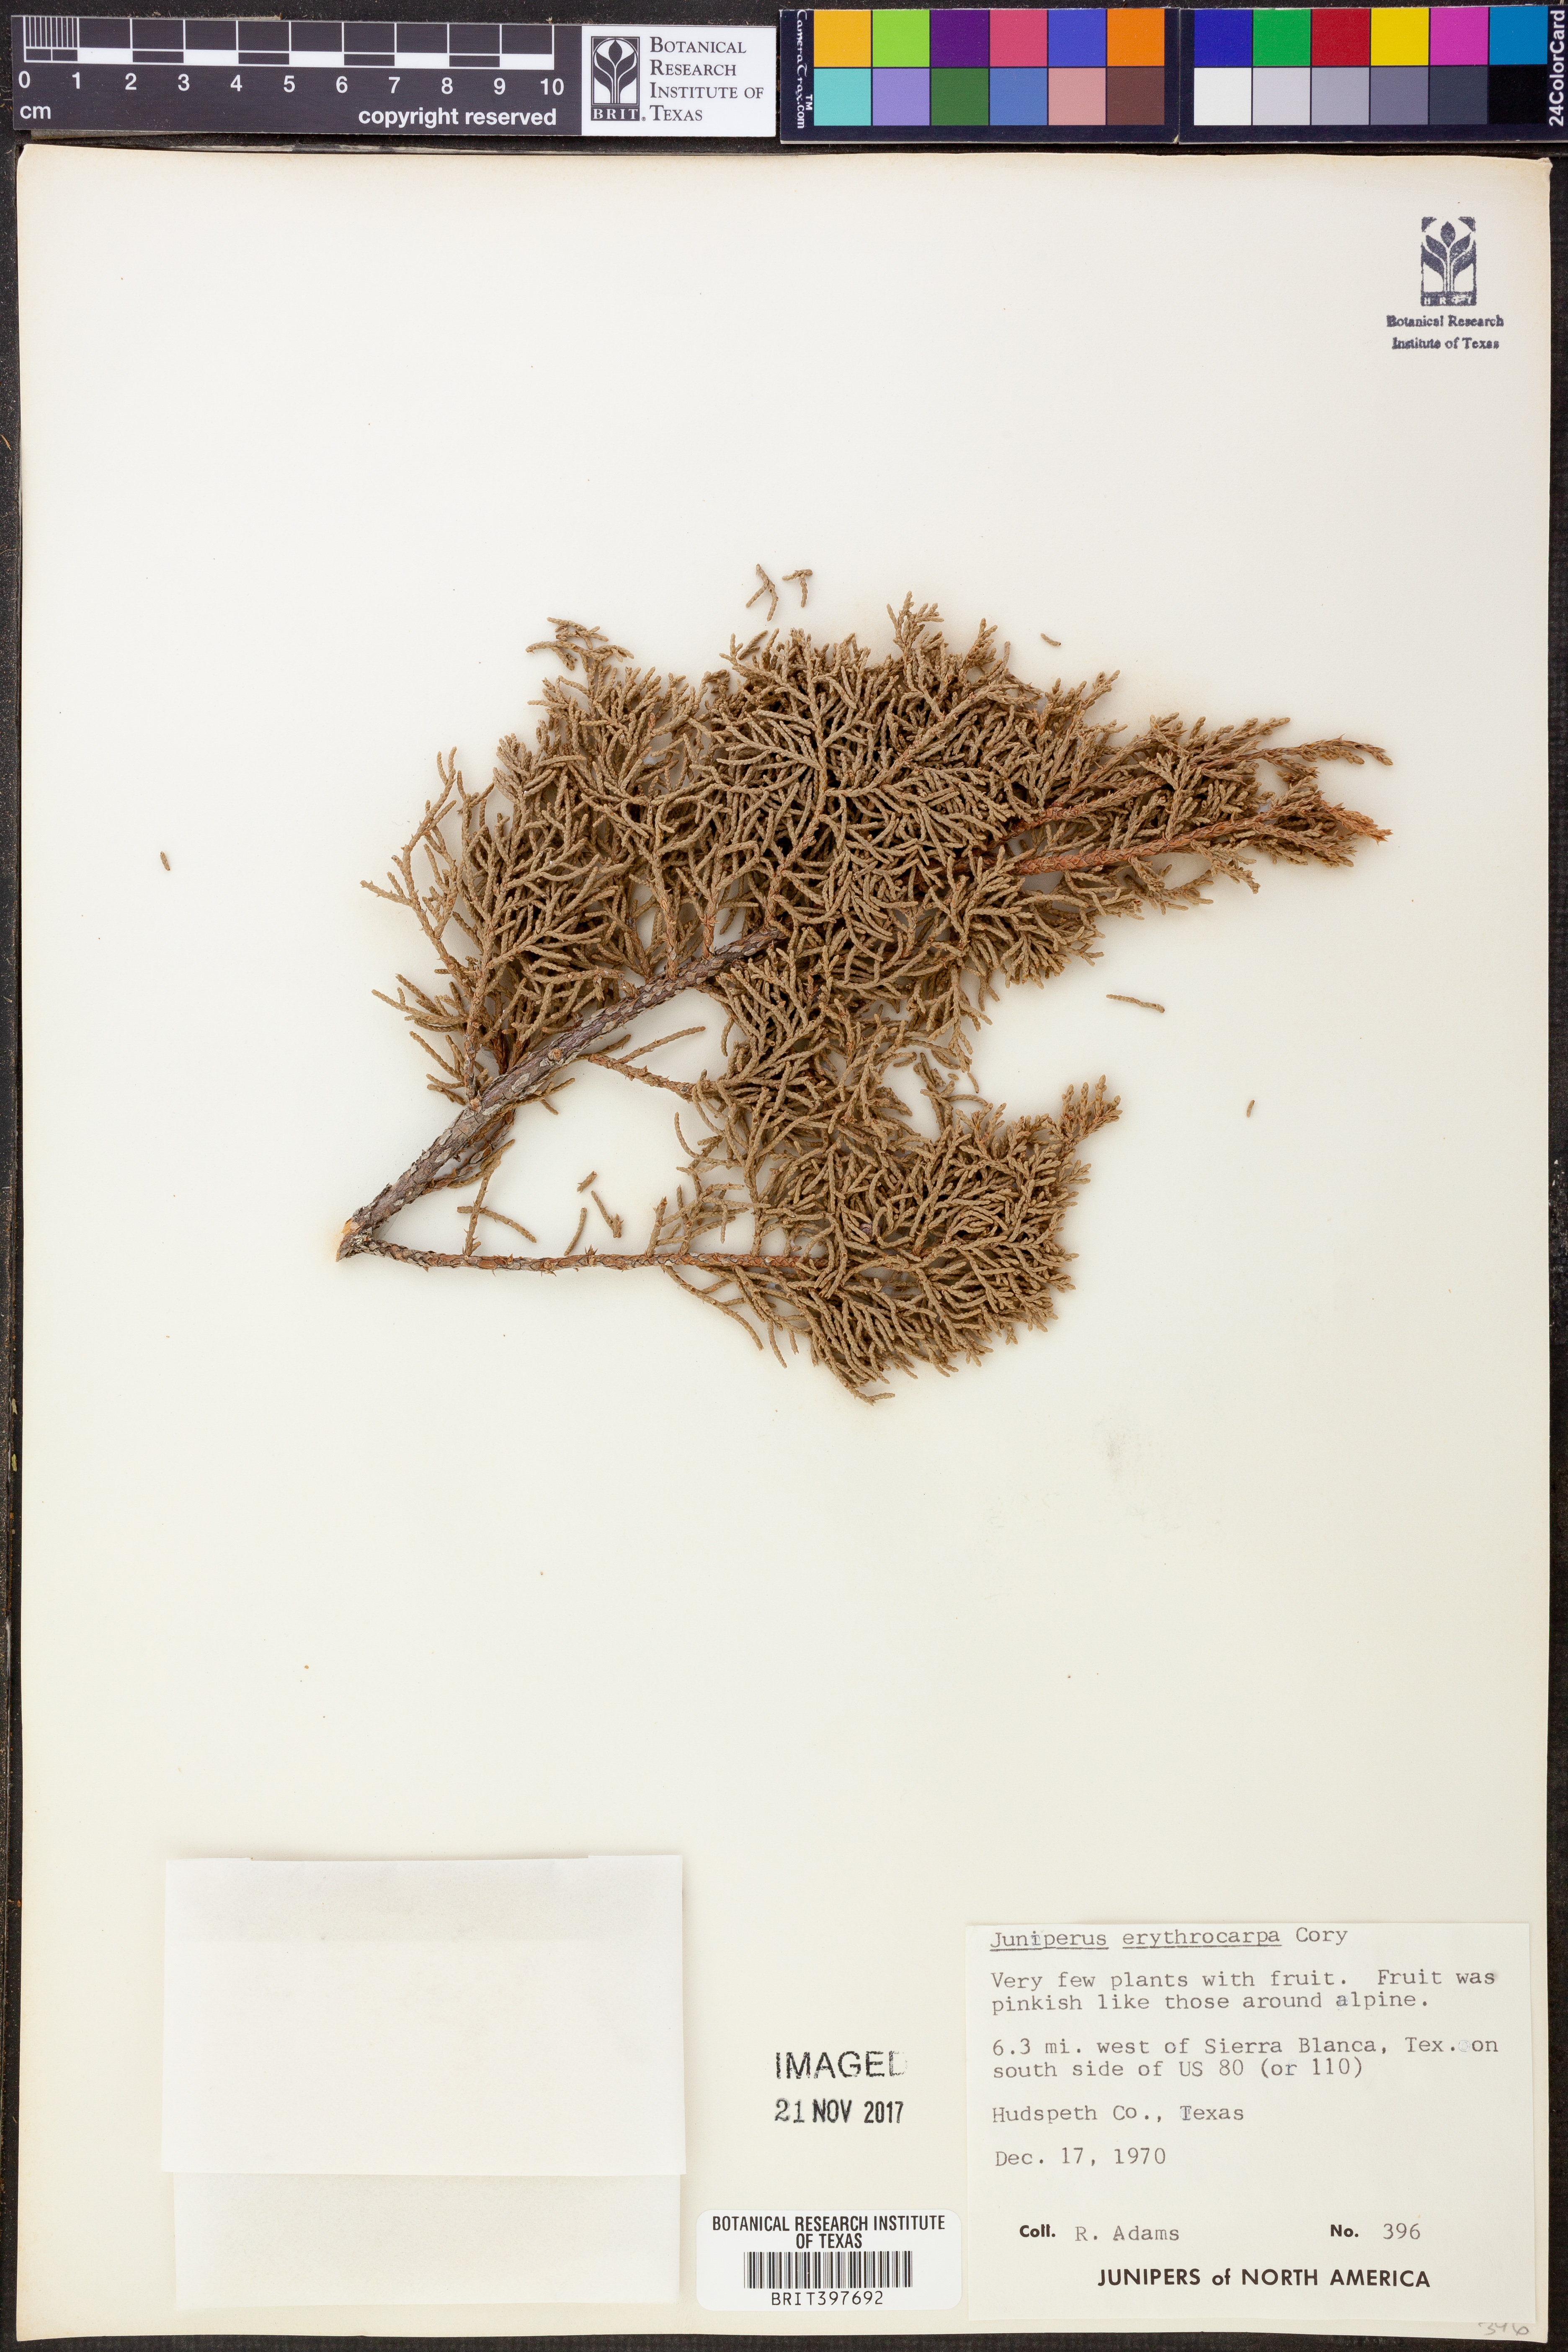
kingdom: Plantae
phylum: Tracheophyta
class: Pinopsida
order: Pinales
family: Cupressaceae
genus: Juniperus
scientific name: Juniperus pinchotii
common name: Pinchot juniper
